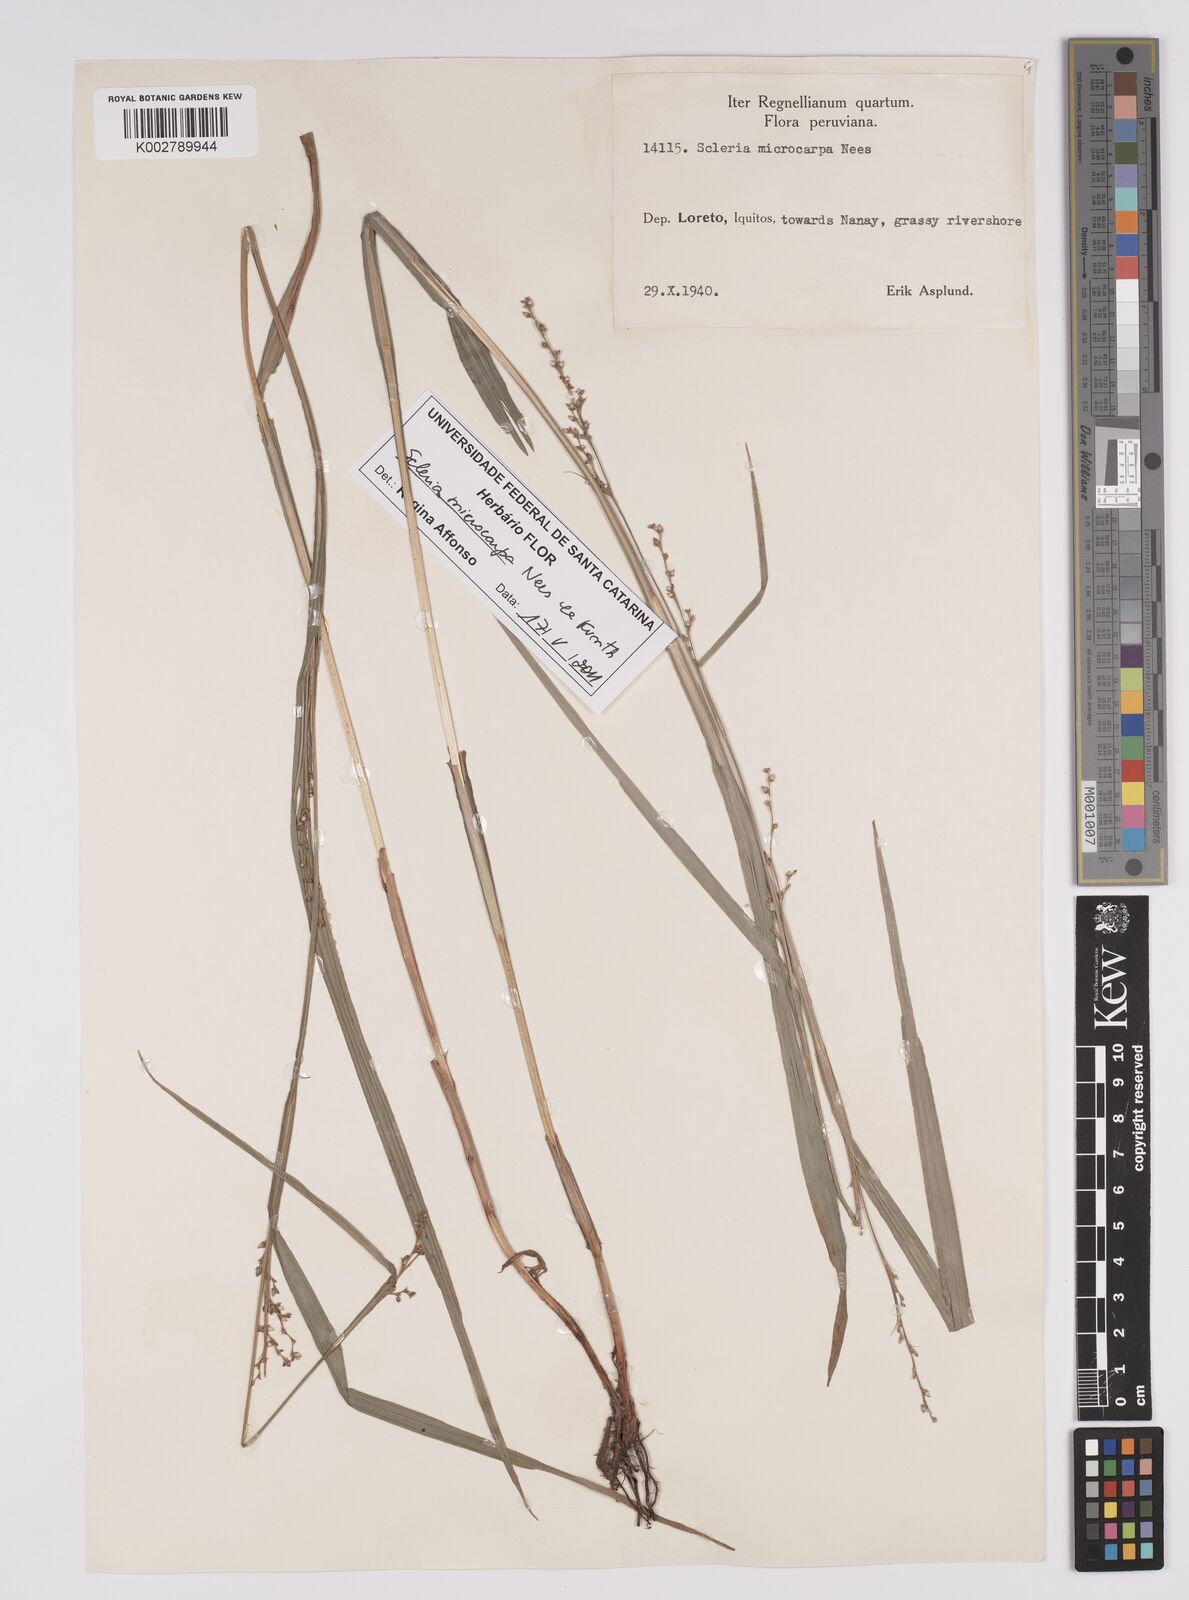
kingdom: Plantae
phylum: Tracheophyta
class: Liliopsida
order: Poales
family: Cyperaceae
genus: Scleria
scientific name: Scleria microcarpa
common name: Tropical nutrush
